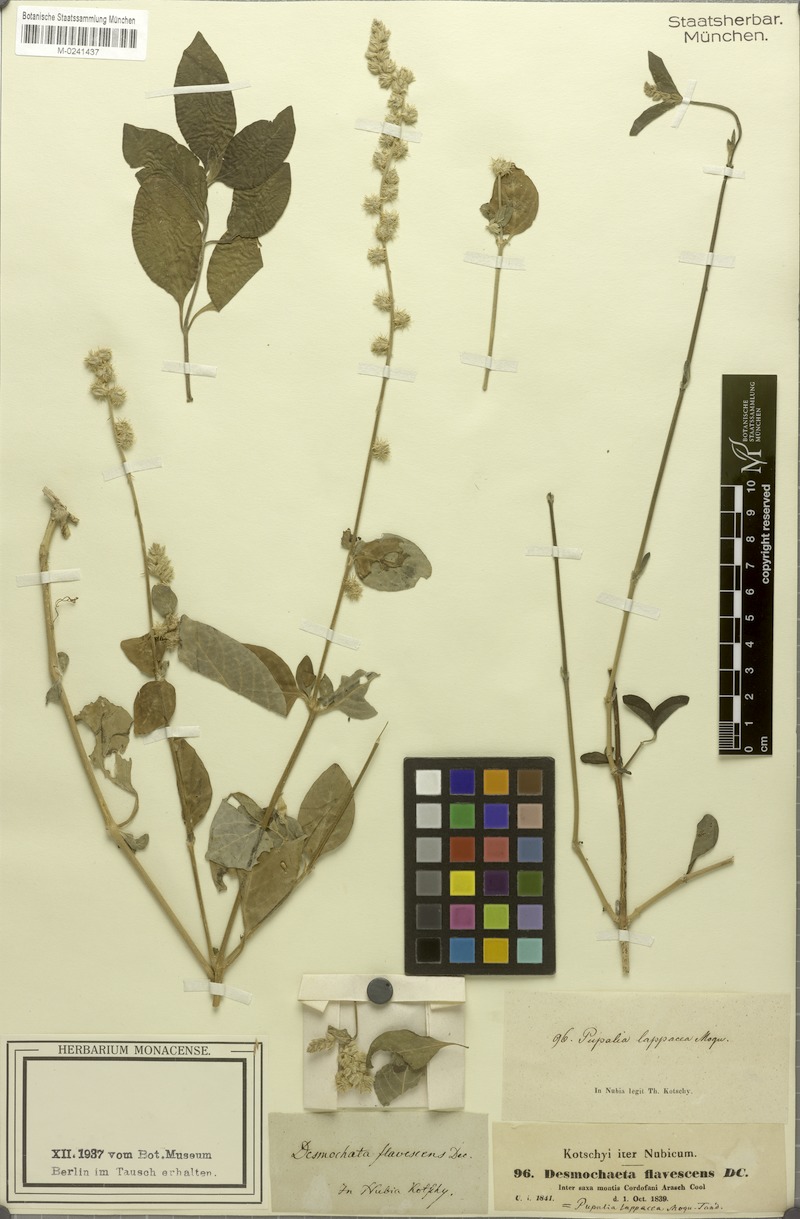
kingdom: Plantae
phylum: Tracheophyta
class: Magnoliopsida
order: Caryophyllales
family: Amaranthaceae
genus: Pupalia
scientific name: Pupalia lappacea
